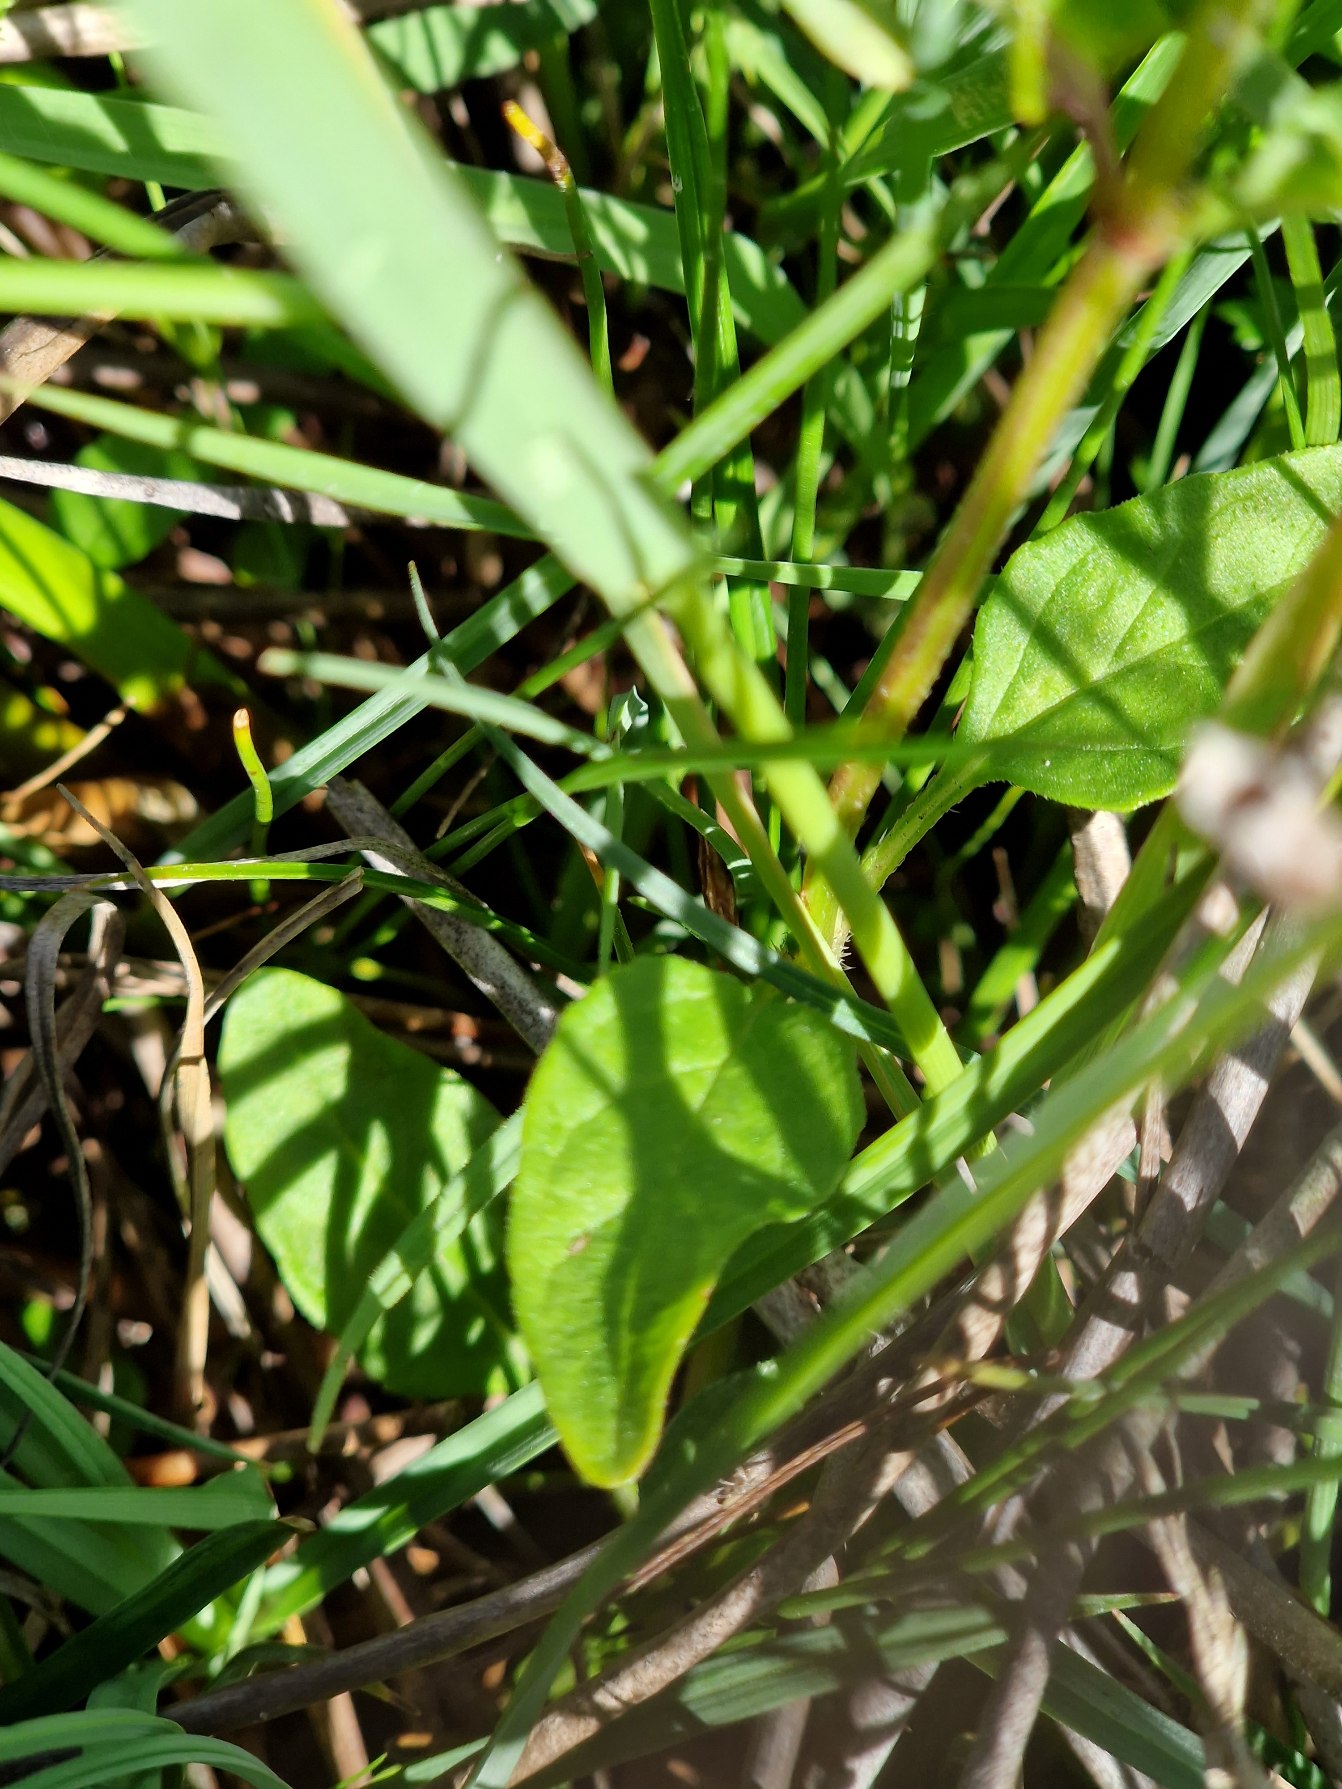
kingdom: Plantae
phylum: Tracheophyta
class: Magnoliopsida
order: Lamiales
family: Lamiaceae
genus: Prunella
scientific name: Prunella vulgaris
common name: Almindelig brunelle
